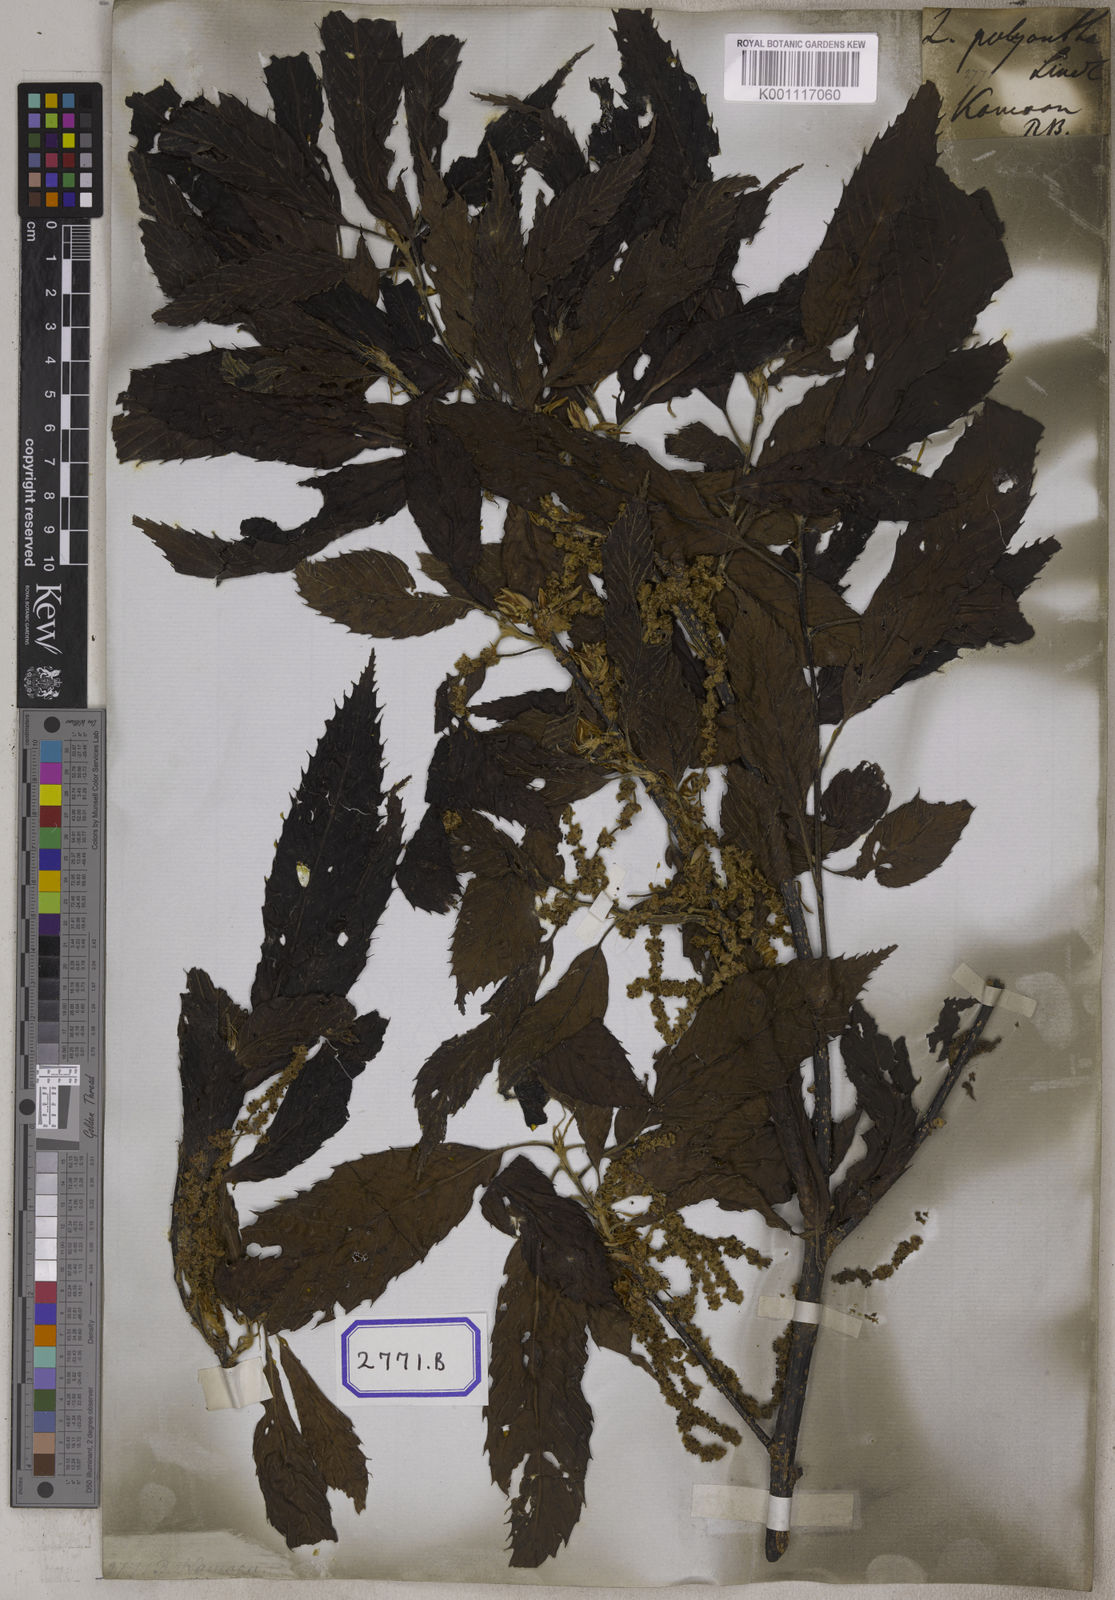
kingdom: Plantae
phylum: Tracheophyta
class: Magnoliopsida
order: Fagales
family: Fagaceae
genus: Quercus
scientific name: Quercus
